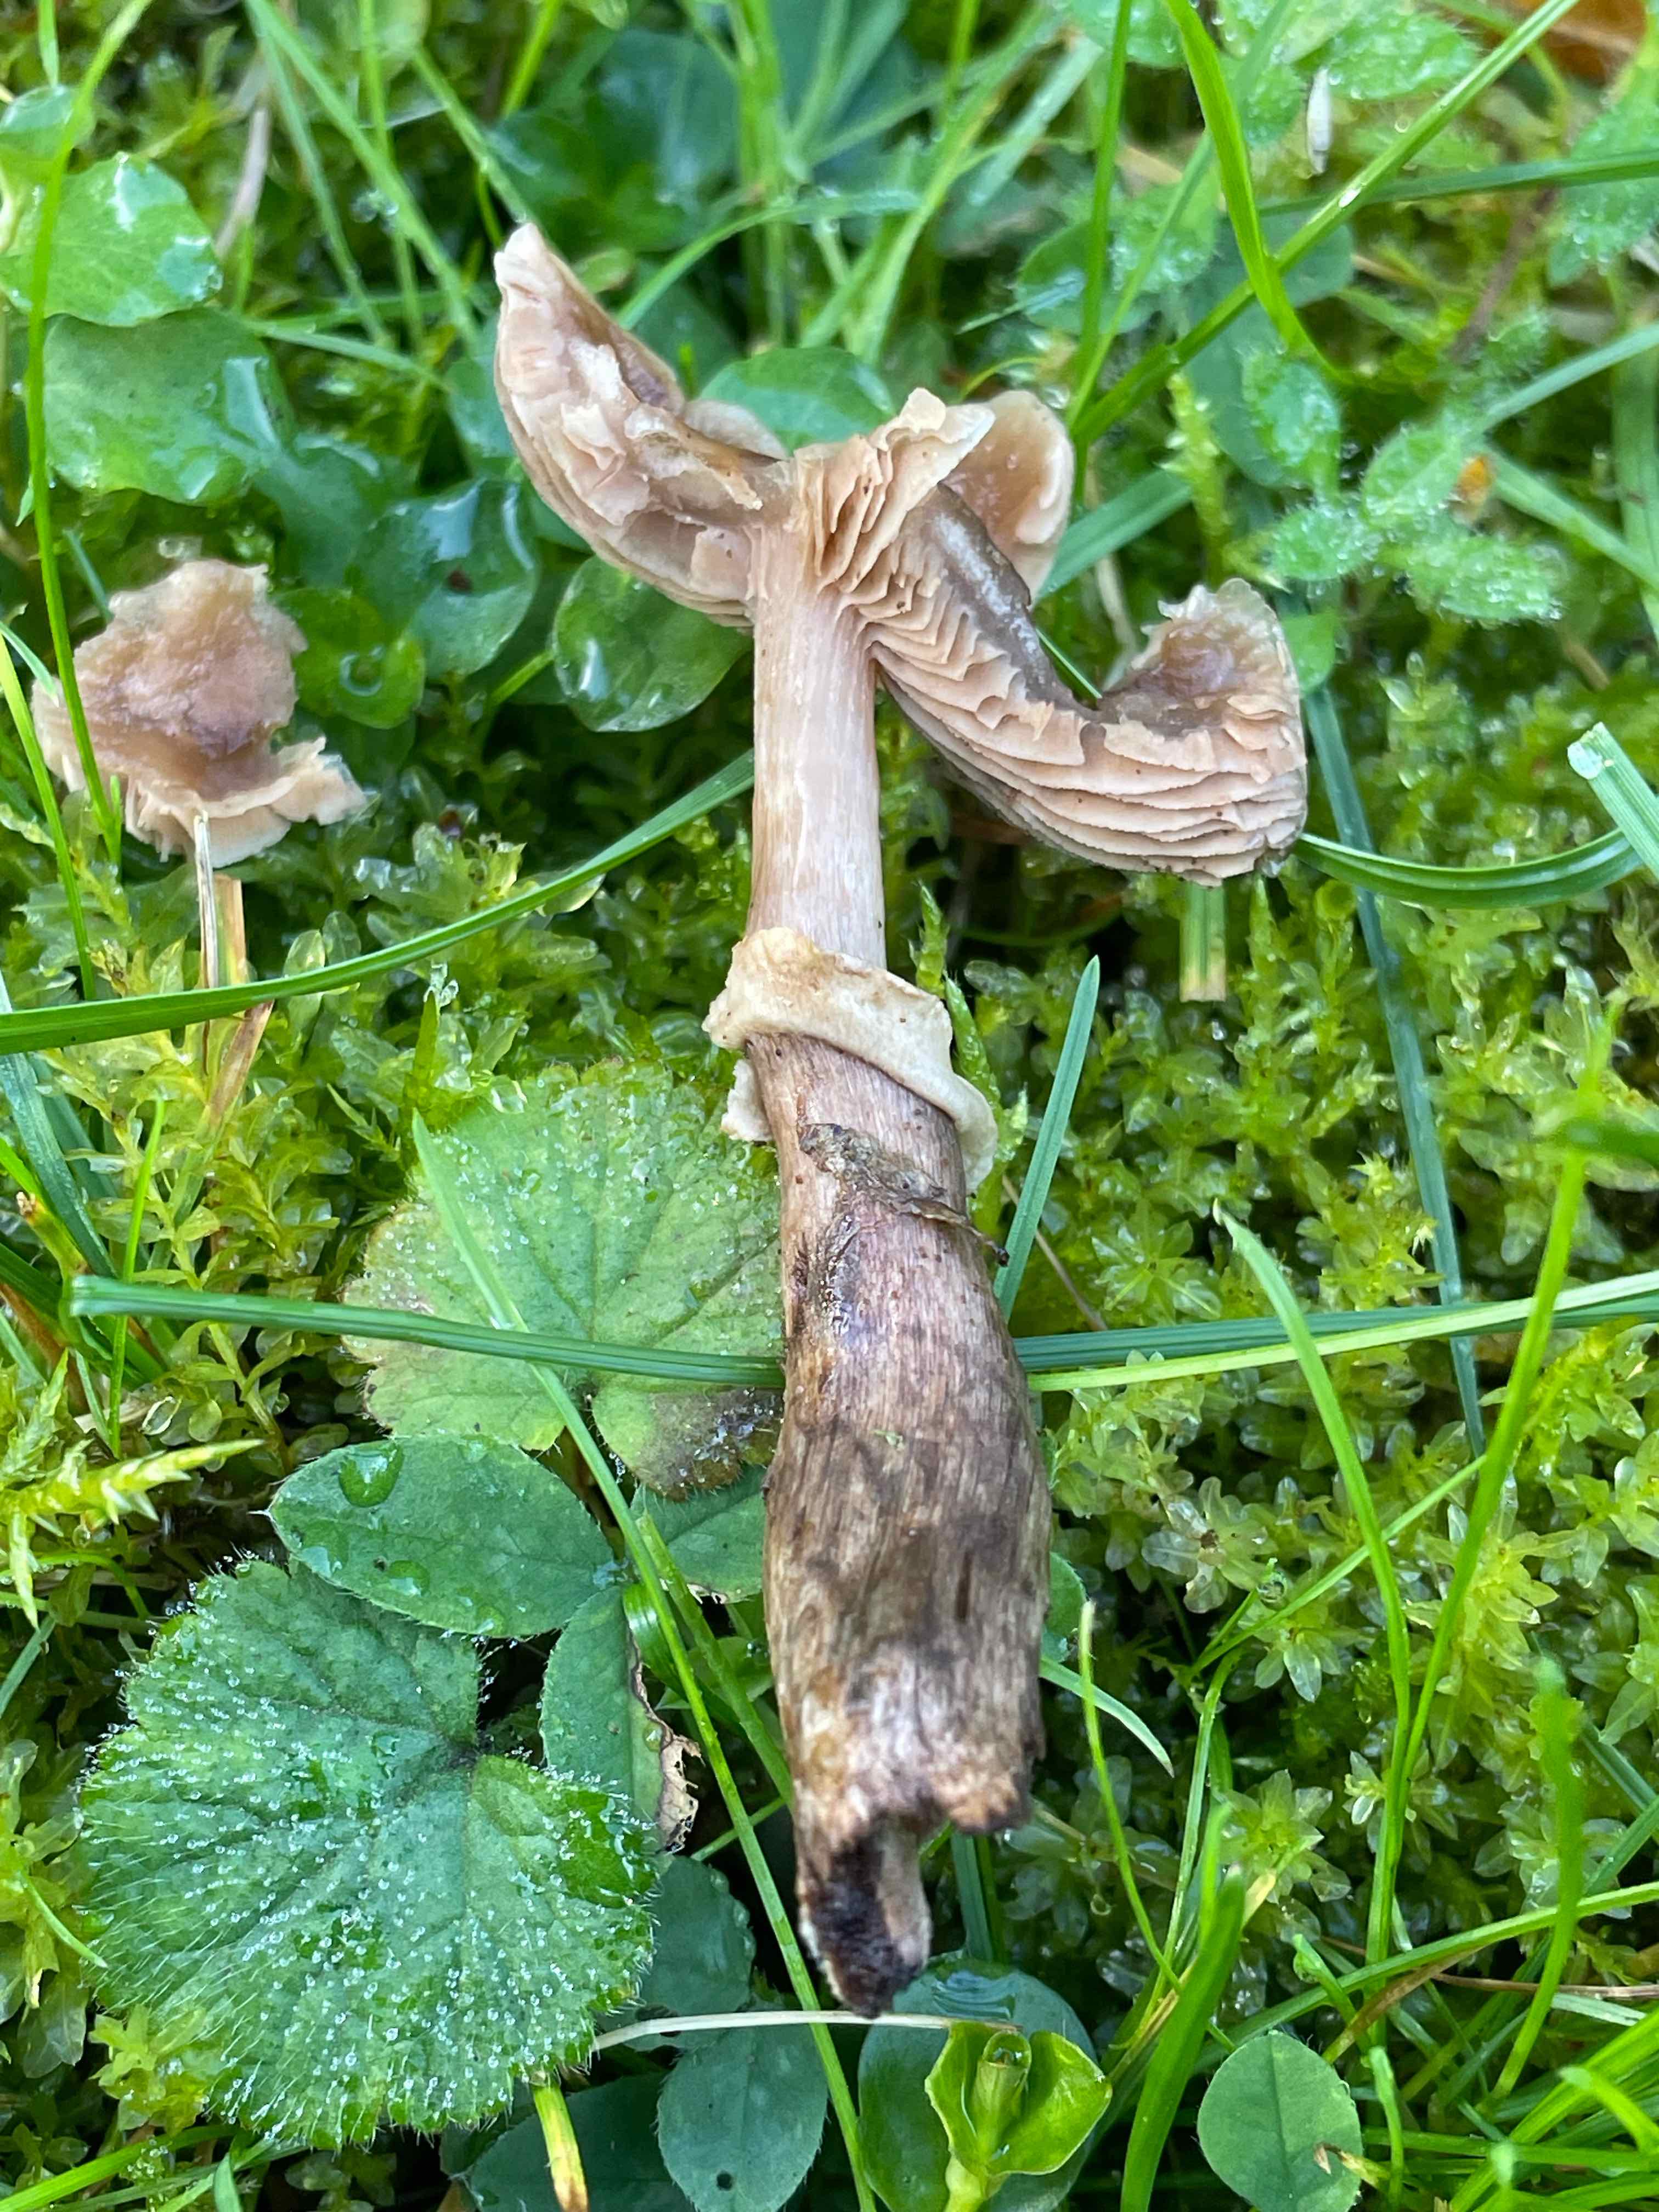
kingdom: Fungi
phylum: Basidiomycota
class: Agaricomycetes
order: Agaricales
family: Tubariaceae
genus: Cyclocybe
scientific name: Cyclocybe erebia
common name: mørk agerhat
